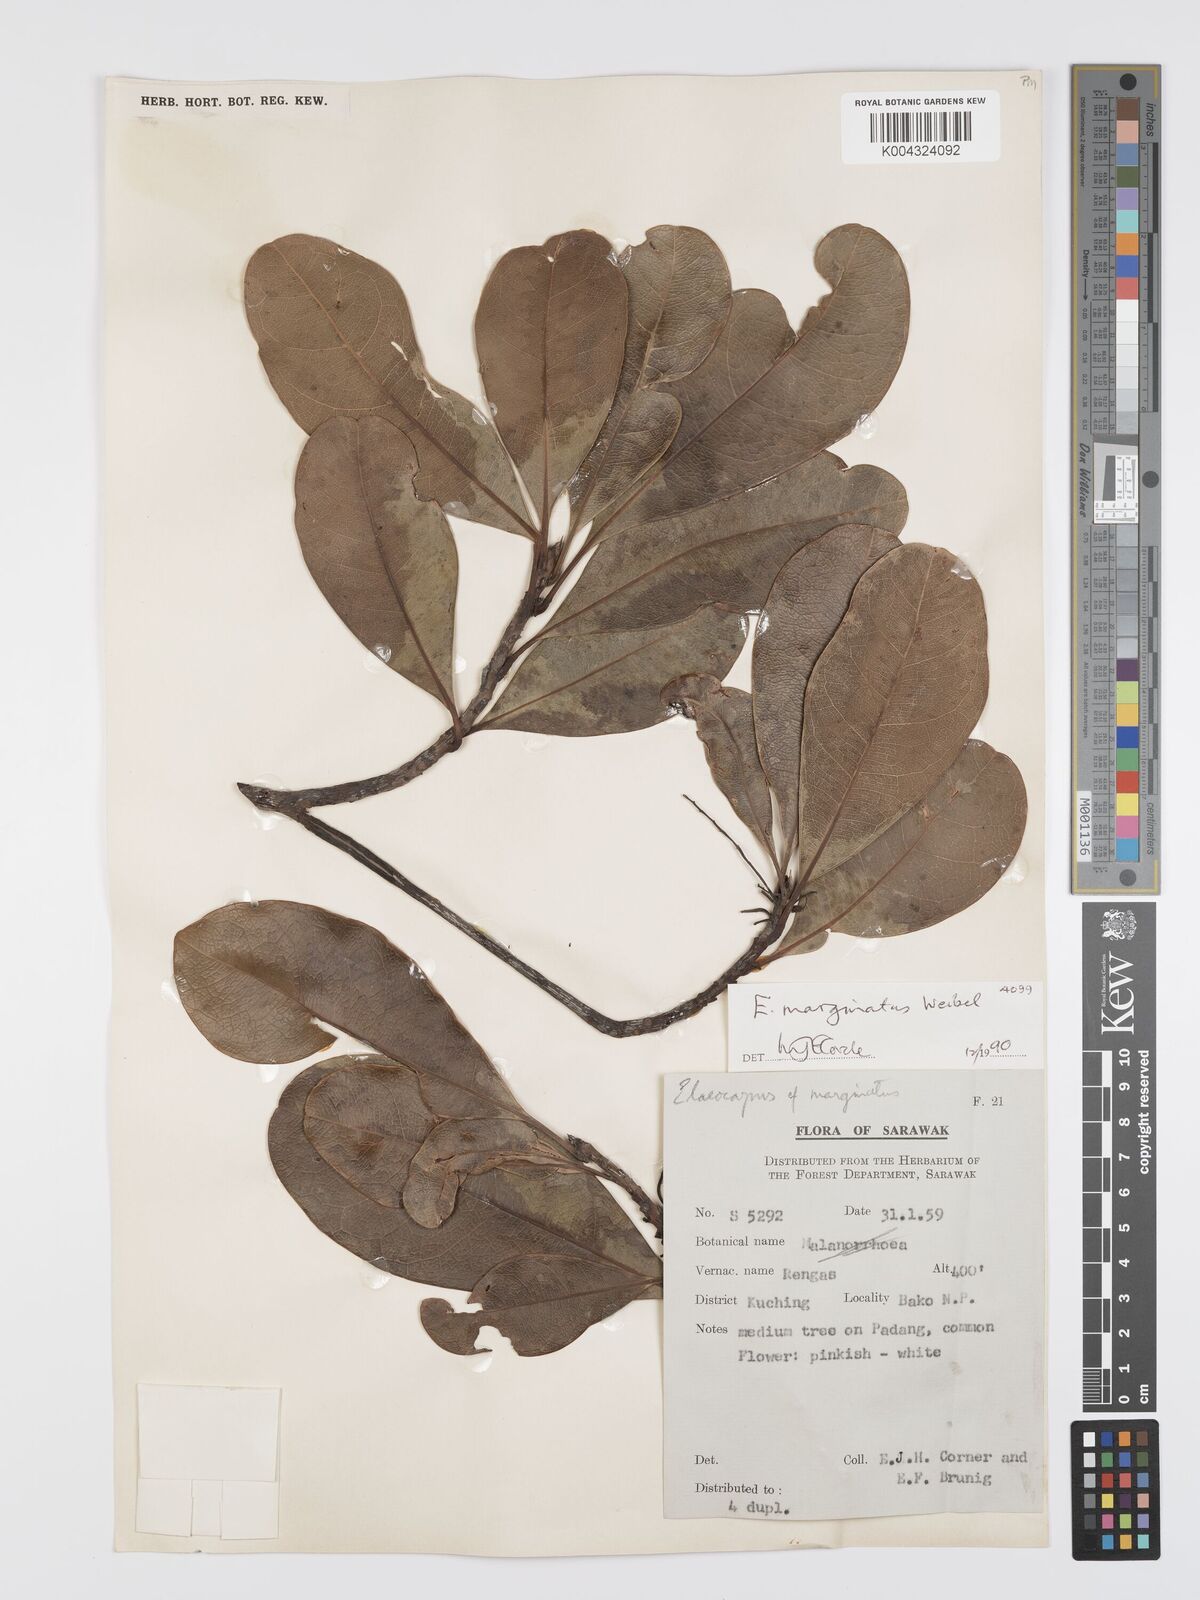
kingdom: Plantae
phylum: Tracheophyta
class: Magnoliopsida
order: Oxalidales
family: Elaeocarpaceae
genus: Elaeocarpus
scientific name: Elaeocarpus marginatus
